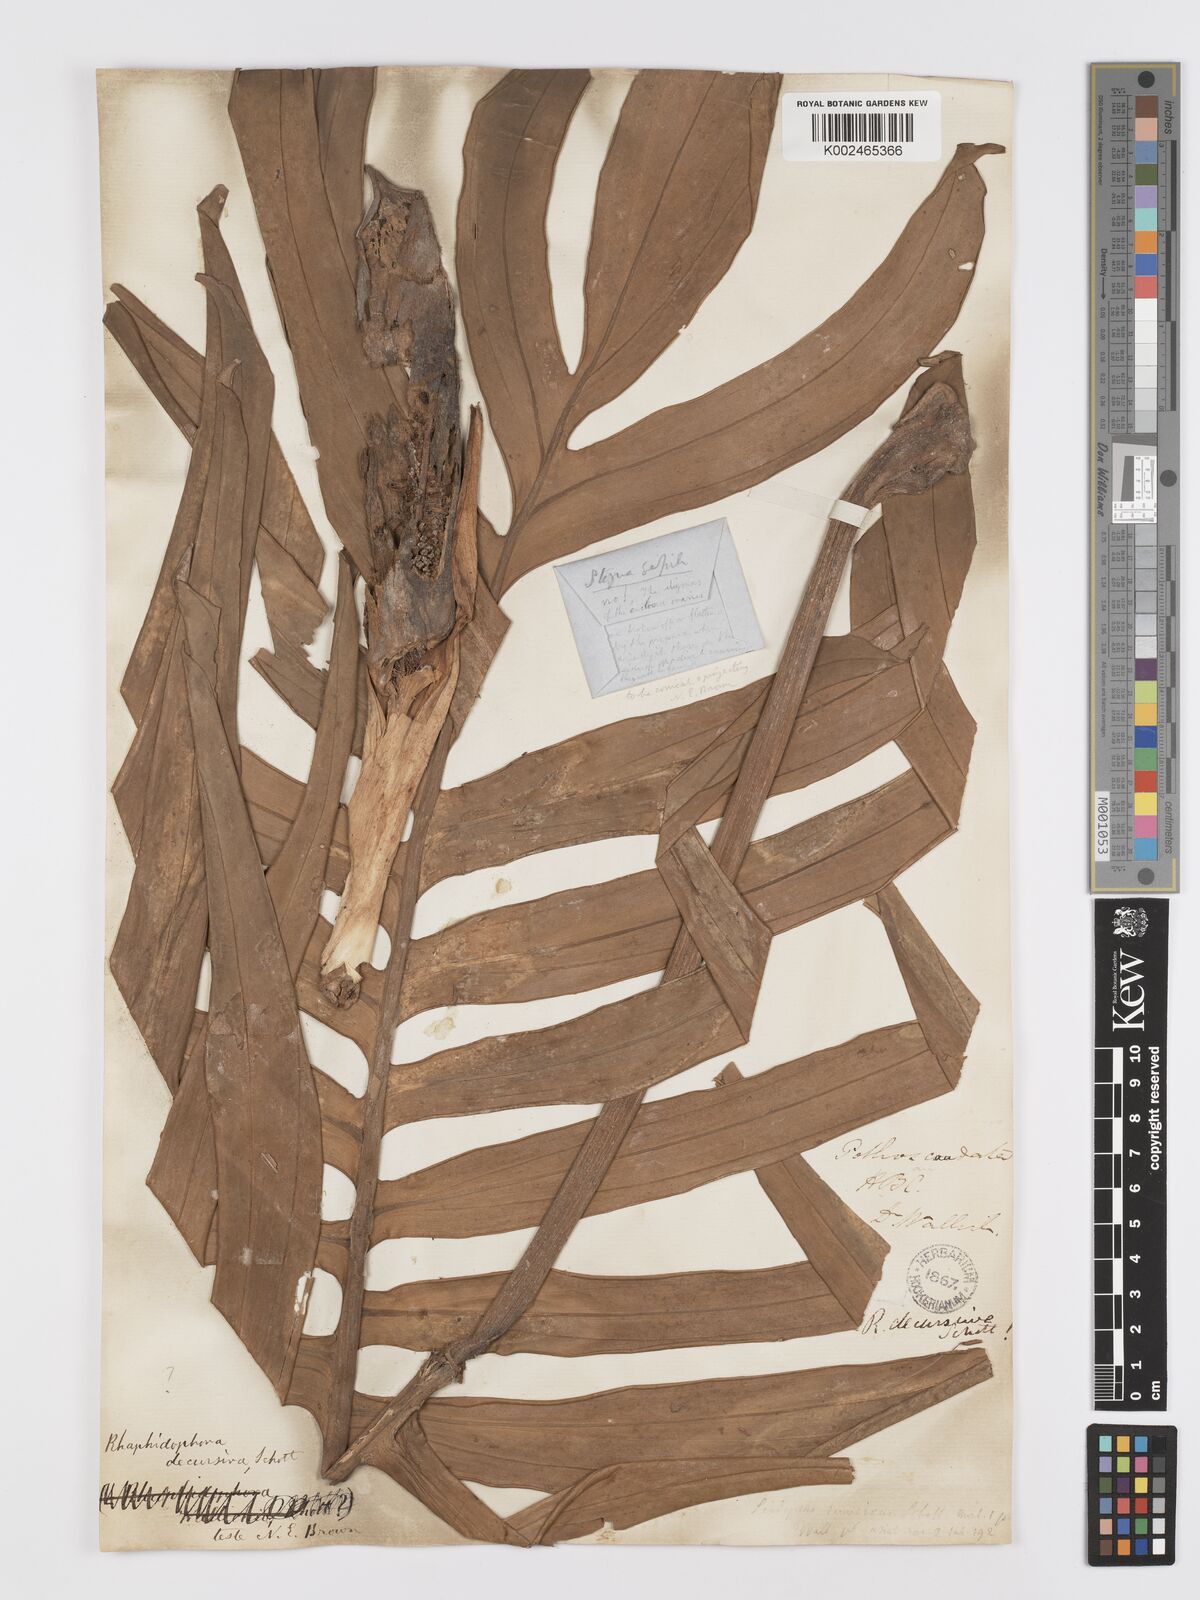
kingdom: Plantae
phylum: Tracheophyta
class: Liliopsida
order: Alismatales
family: Araceae
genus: Rhaphidophora
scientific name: Rhaphidophora decursiva
